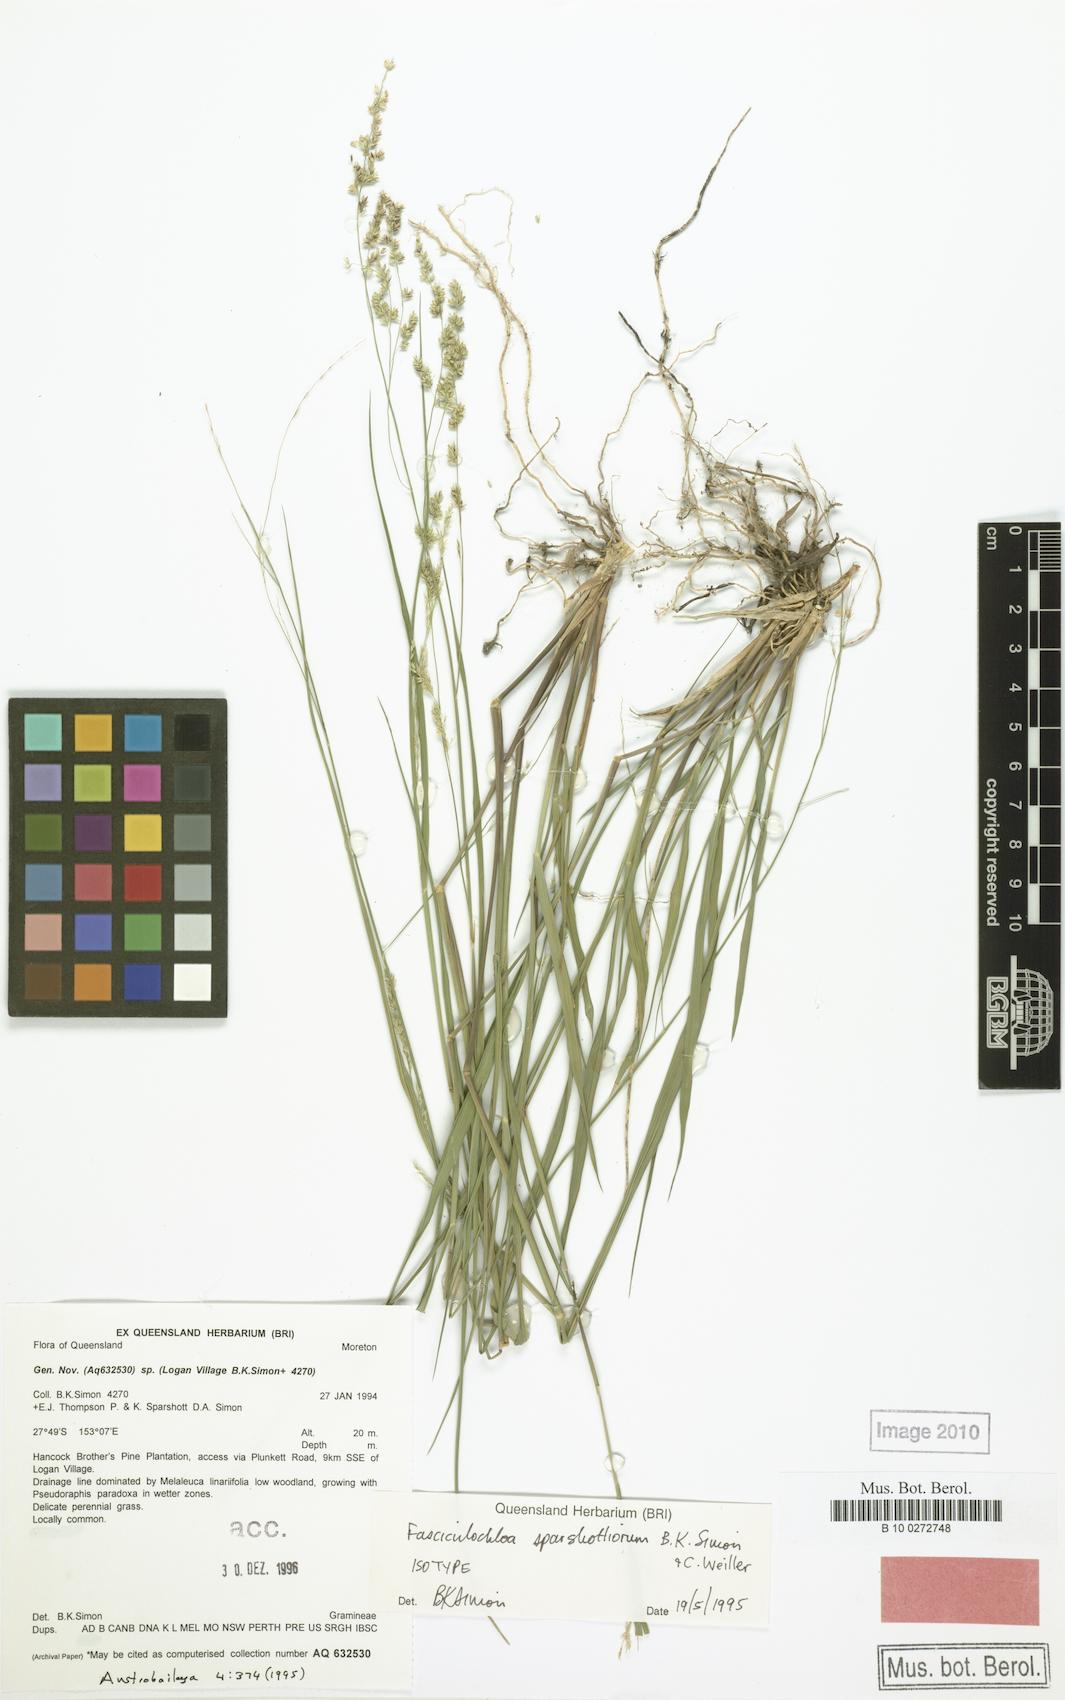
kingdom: Plantae
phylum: Tracheophyta
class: Liliopsida
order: Poales
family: Poaceae
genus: Steinchisma
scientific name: Steinchisma hians
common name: Gaping panic grass
